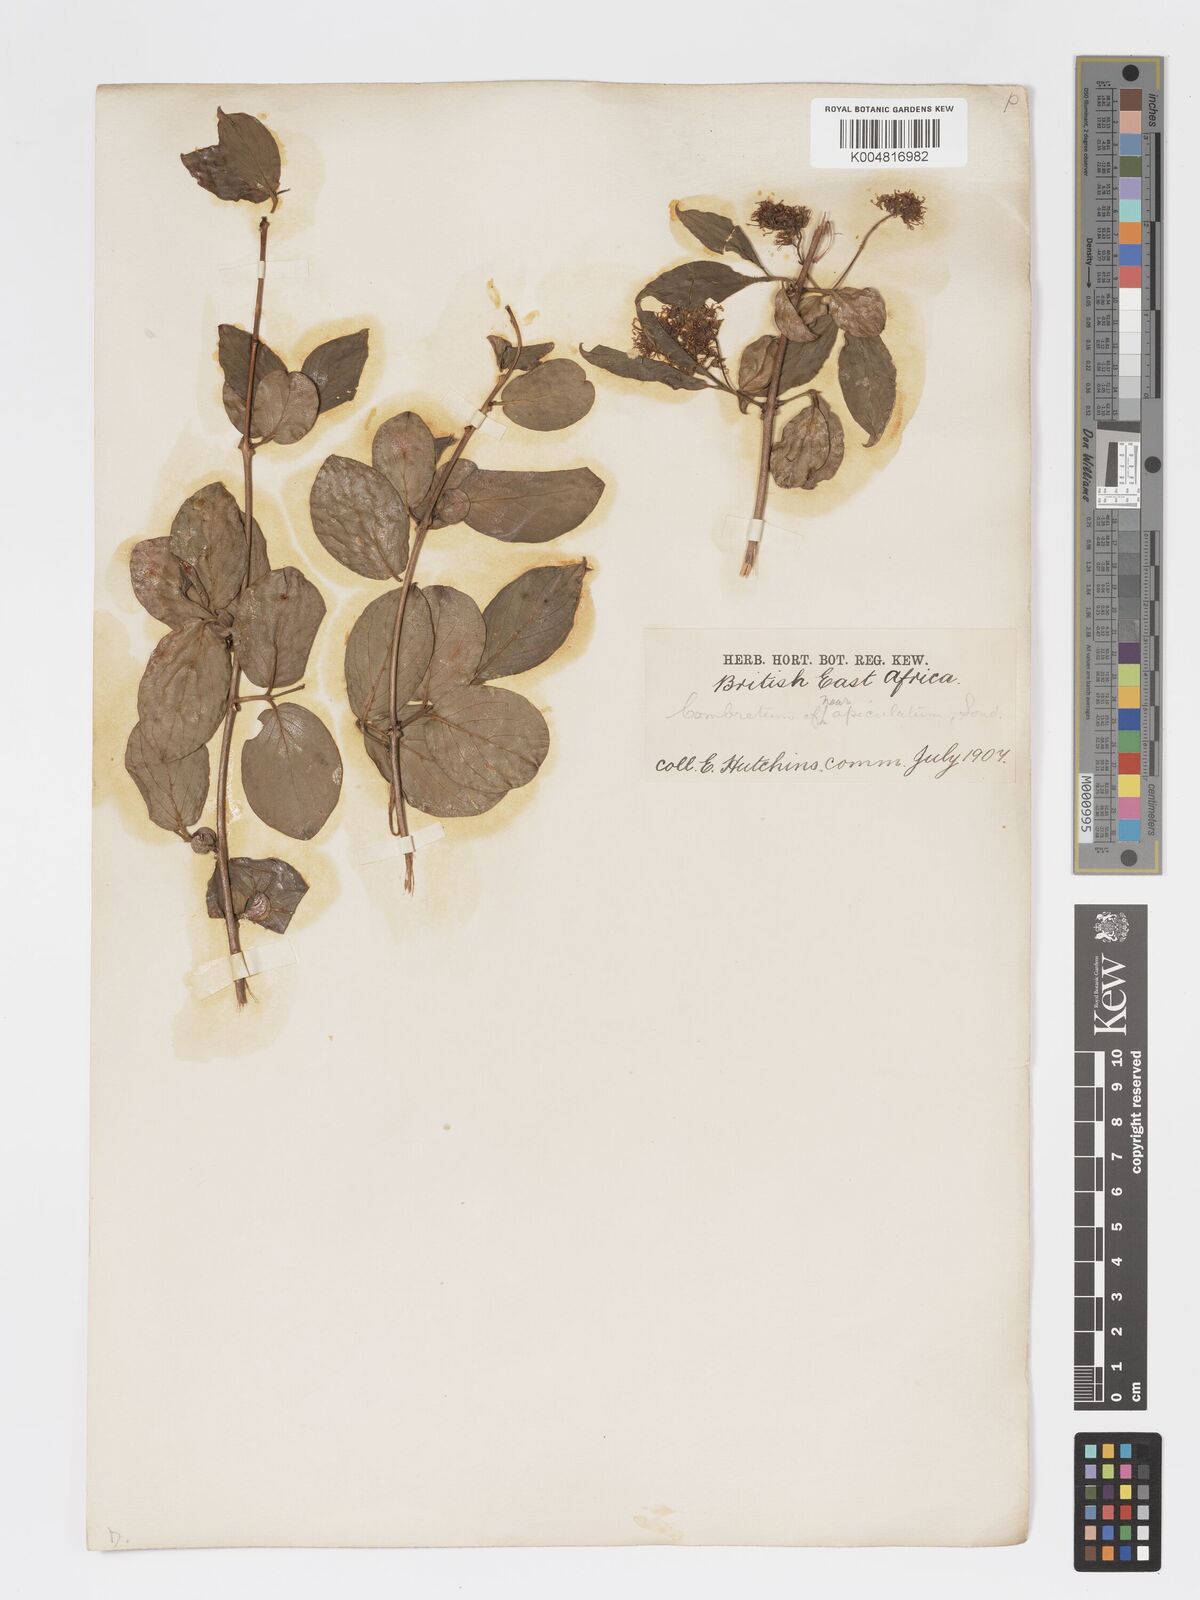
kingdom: Plantae
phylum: Tracheophyta
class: Magnoliopsida
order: Myrtales
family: Combretaceae
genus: Combretum
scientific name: Combretum apiculatum
